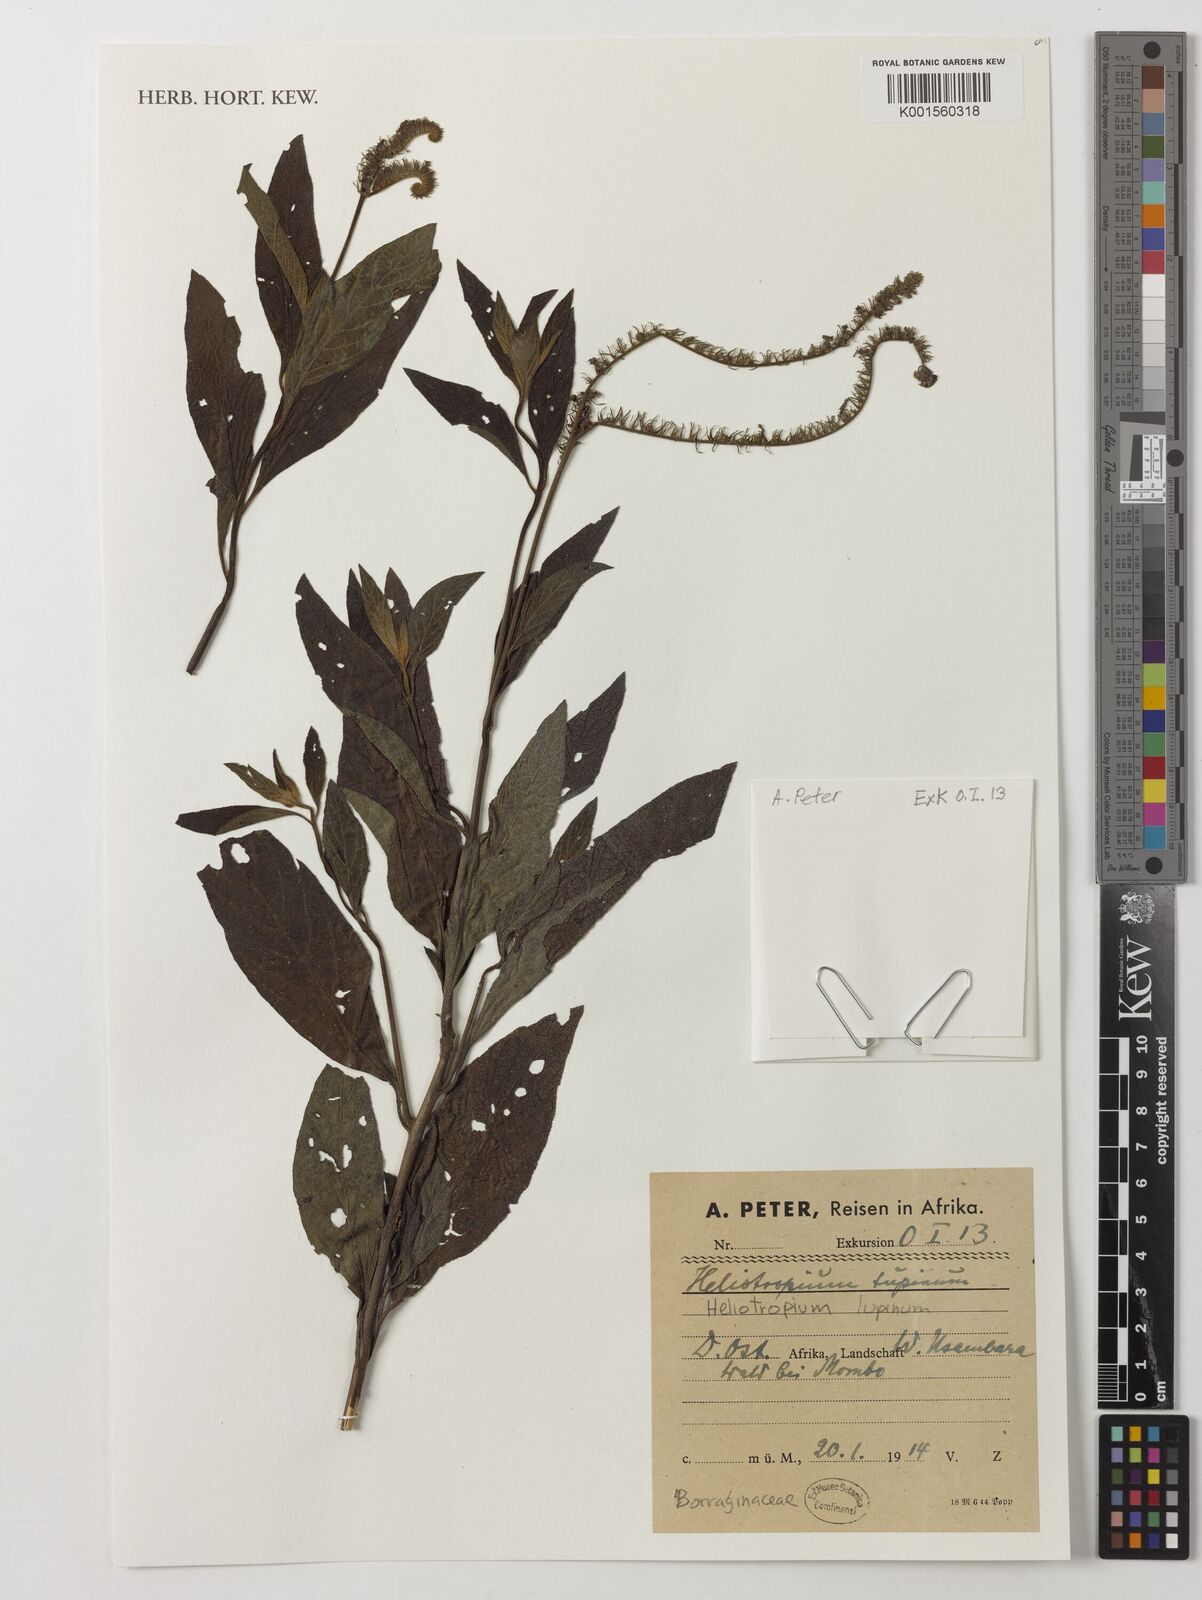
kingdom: Plantae
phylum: Tracheophyta
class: Magnoliopsida
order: Boraginales
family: Heliotropiaceae
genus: Heliotropium
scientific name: Heliotropium
